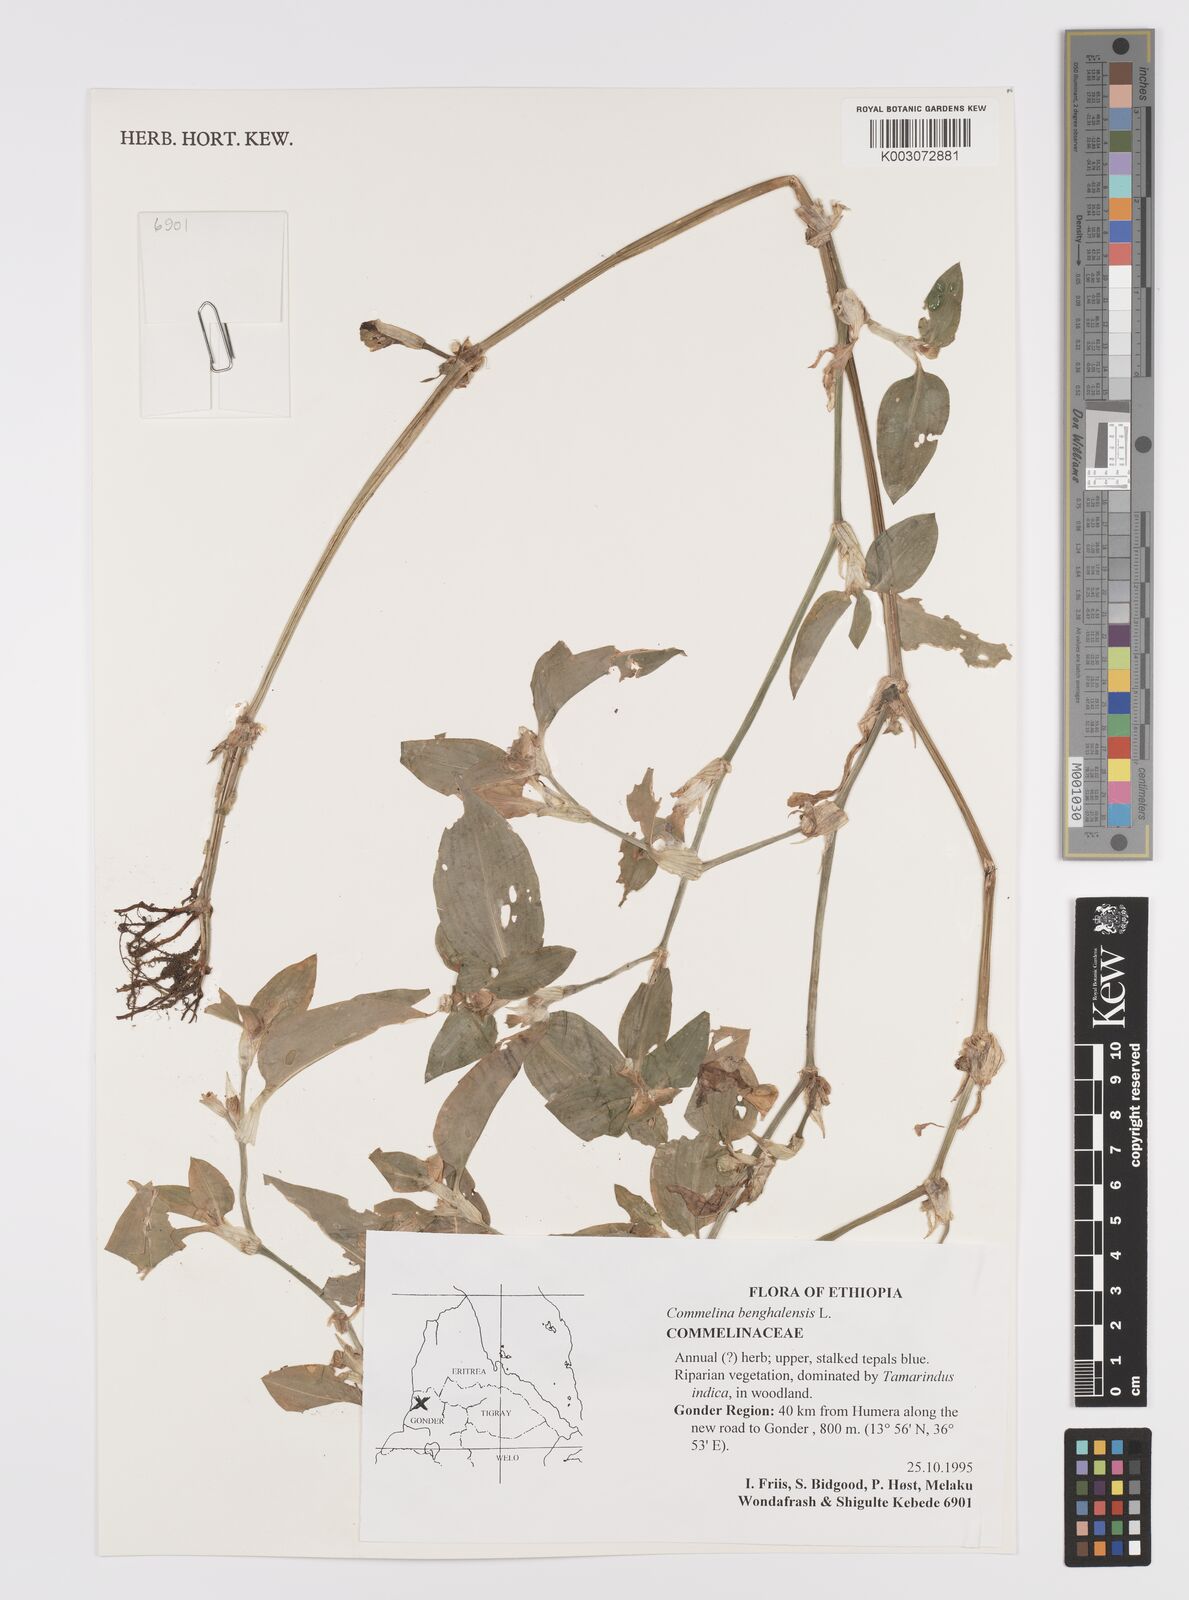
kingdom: Plantae
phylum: Tracheophyta
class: Liliopsida
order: Commelinales
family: Commelinaceae
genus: Commelina
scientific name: Commelina benghalensis
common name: Jio
